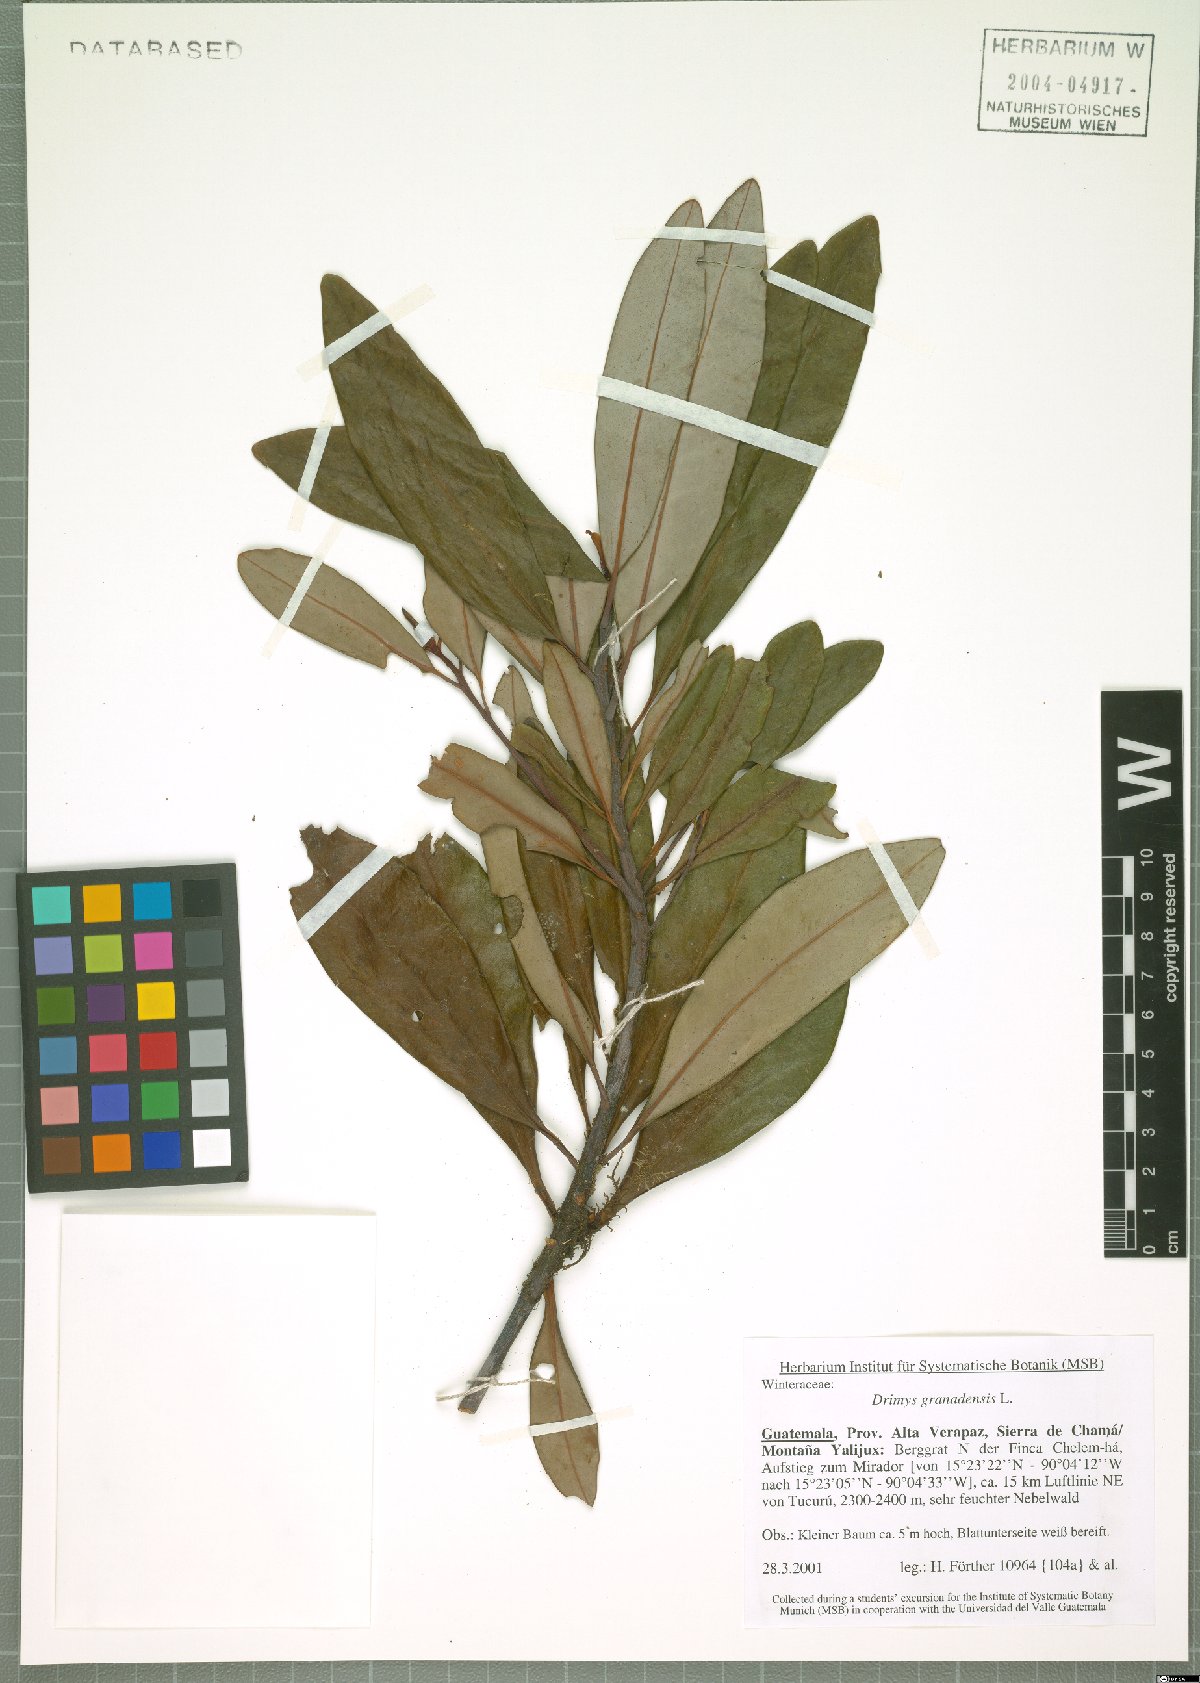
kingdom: Plantae
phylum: Tracheophyta
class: Magnoliopsida
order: Canellales
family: Winteraceae
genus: Drimys
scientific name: Drimys granadensis
